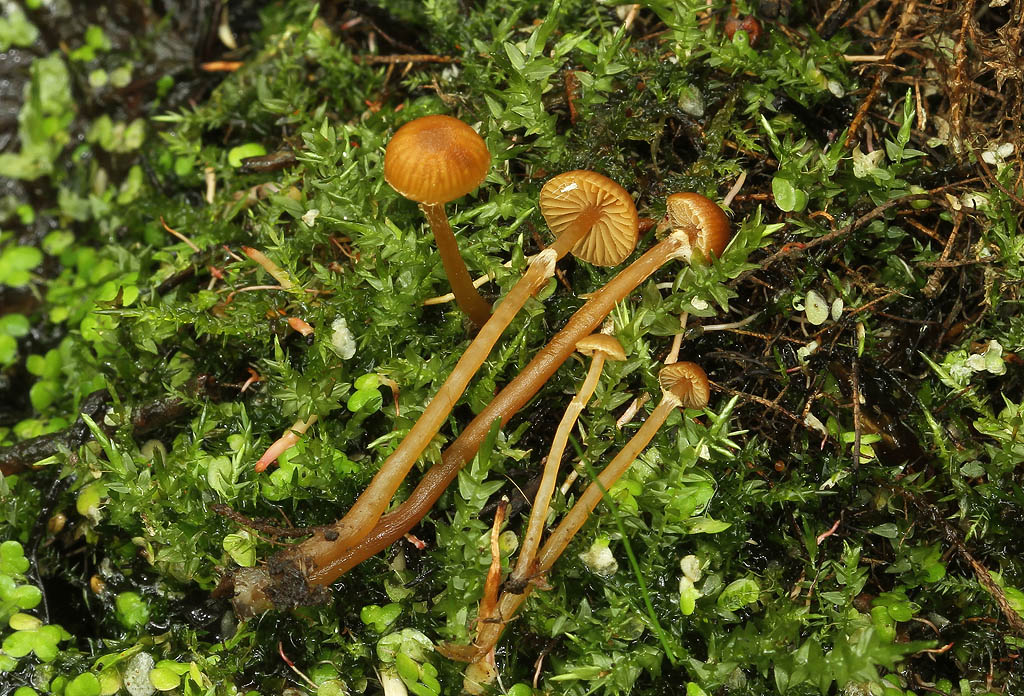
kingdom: Fungi
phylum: Basidiomycota
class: Agaricomycetes
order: Agaricales
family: Hymenogastraceae
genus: Galerina
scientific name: Galerina jaapii
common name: hvidbæltet hjelmhat
